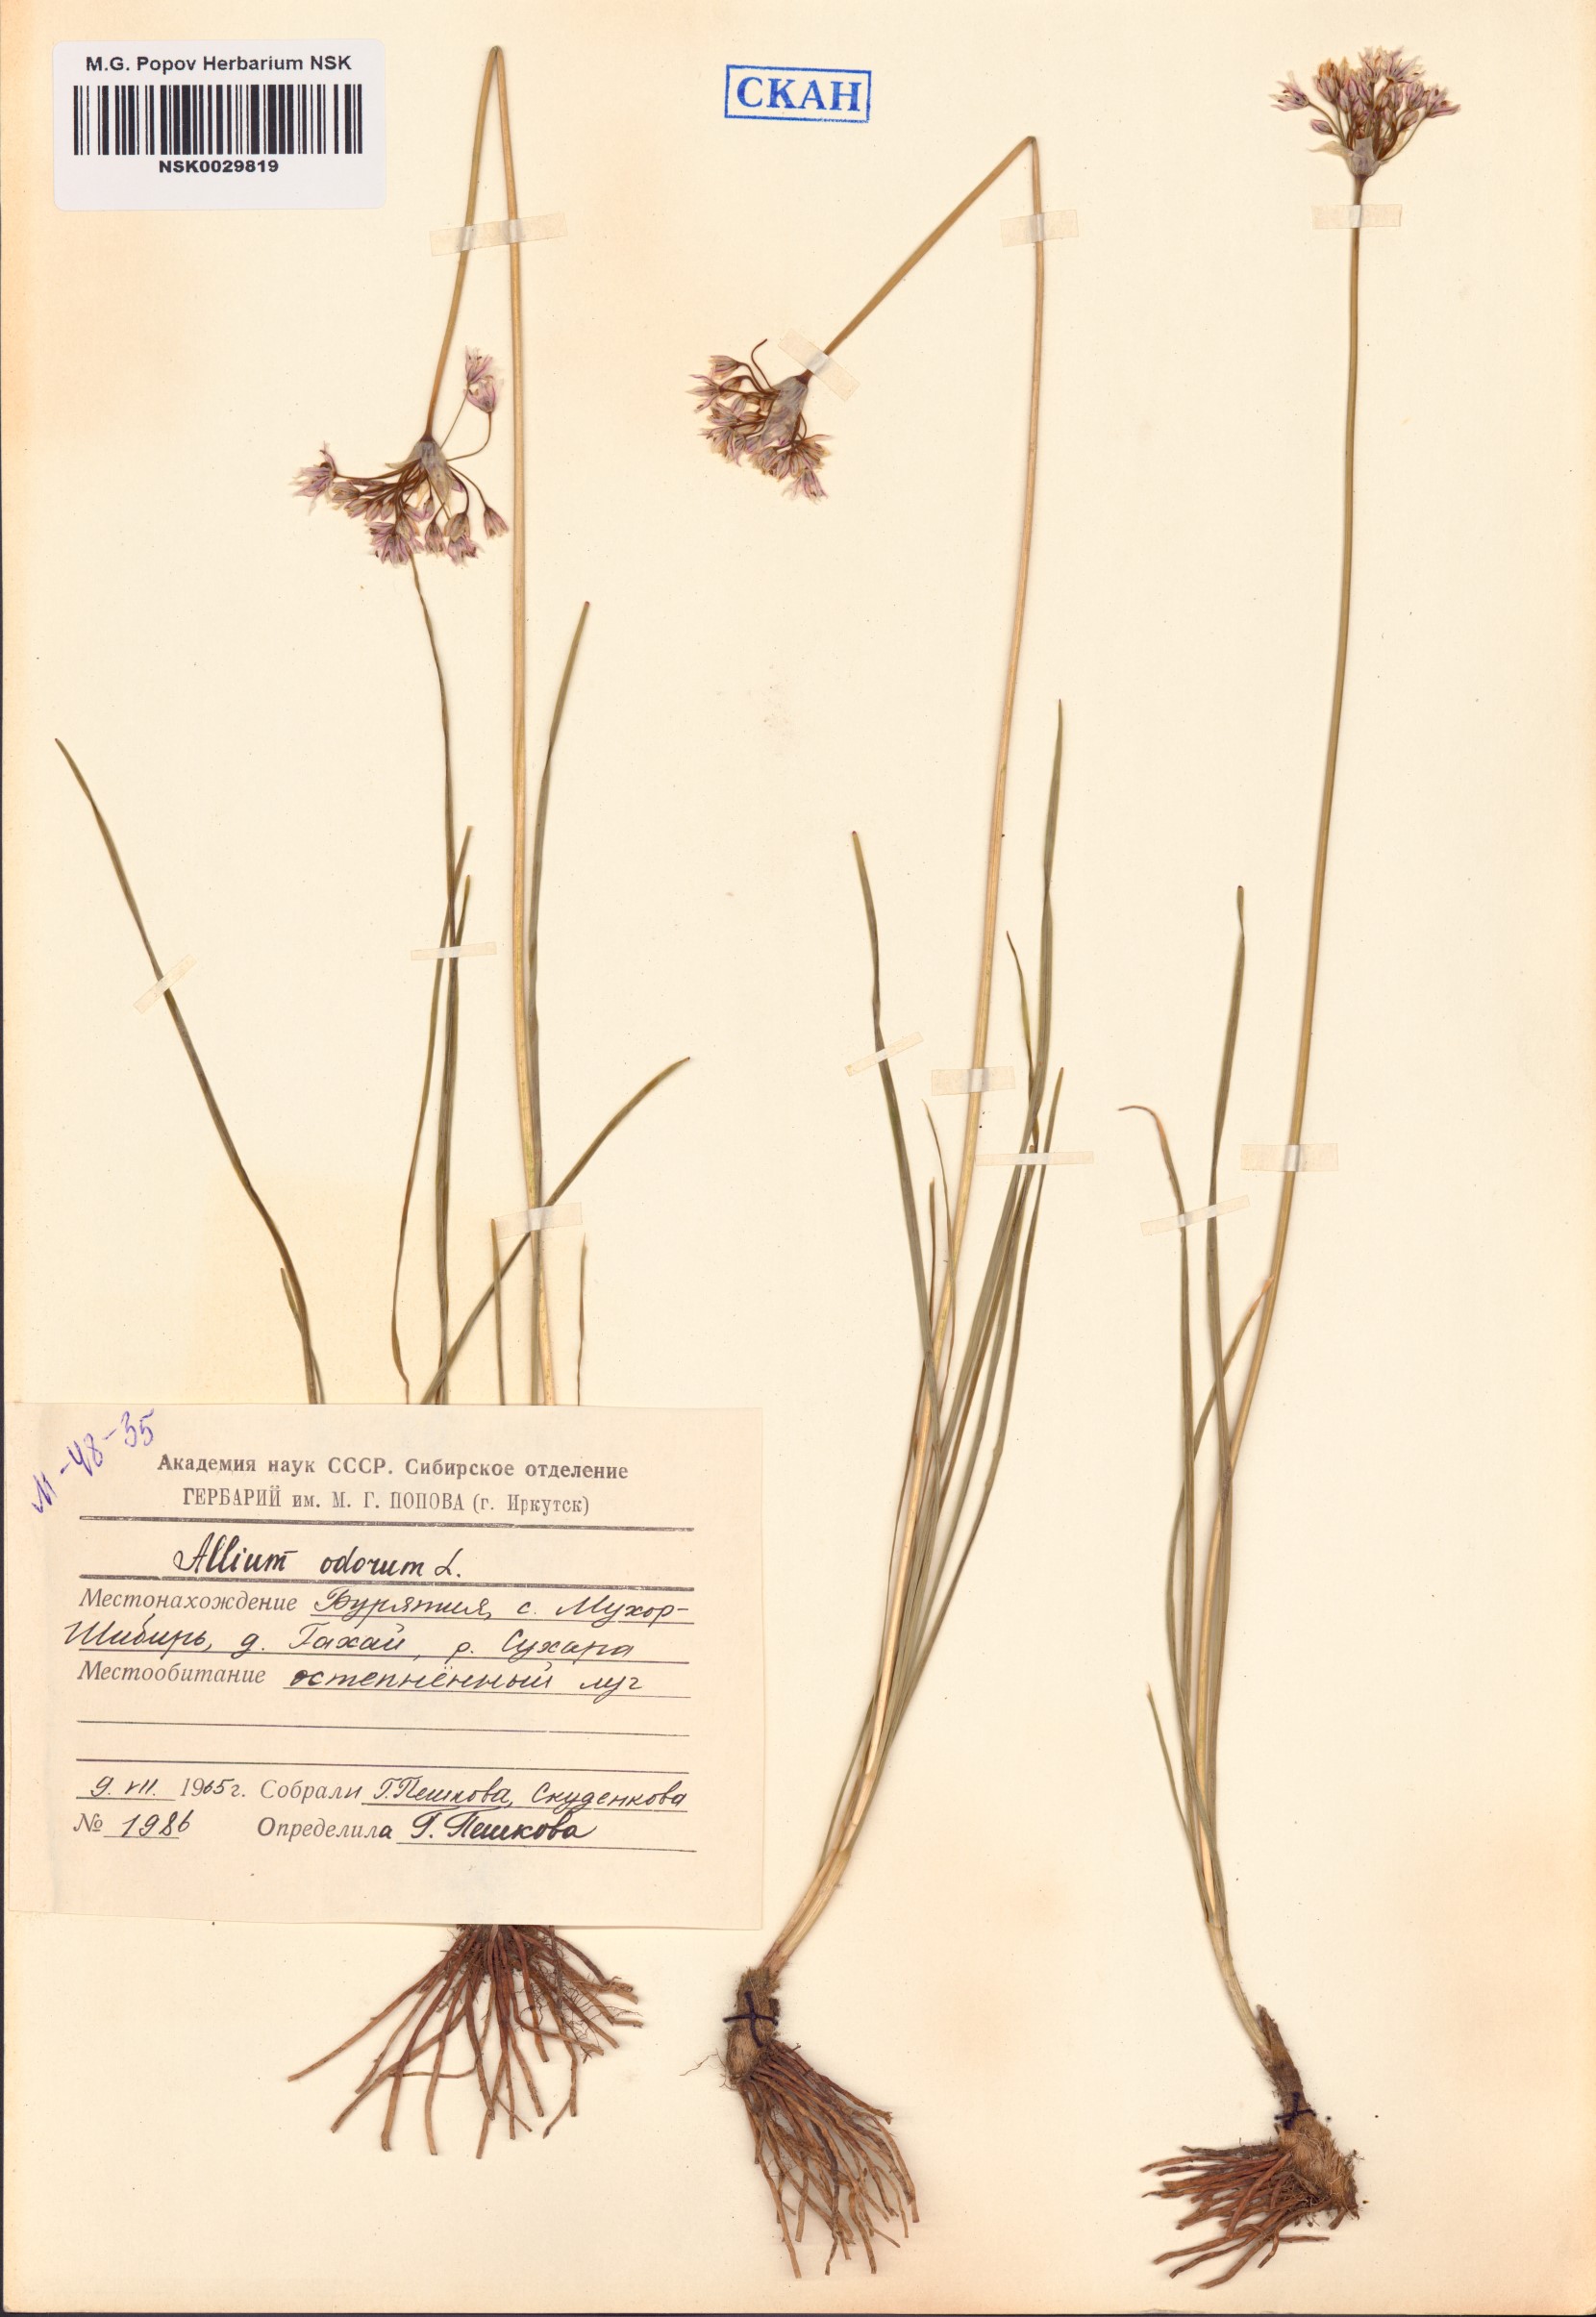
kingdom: Plantae
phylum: Tracheophyta
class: Liliopsida
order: Asparagales
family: Amaryllidaceae
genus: Allium
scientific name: Allium ramosum
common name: Fragrant garlic
